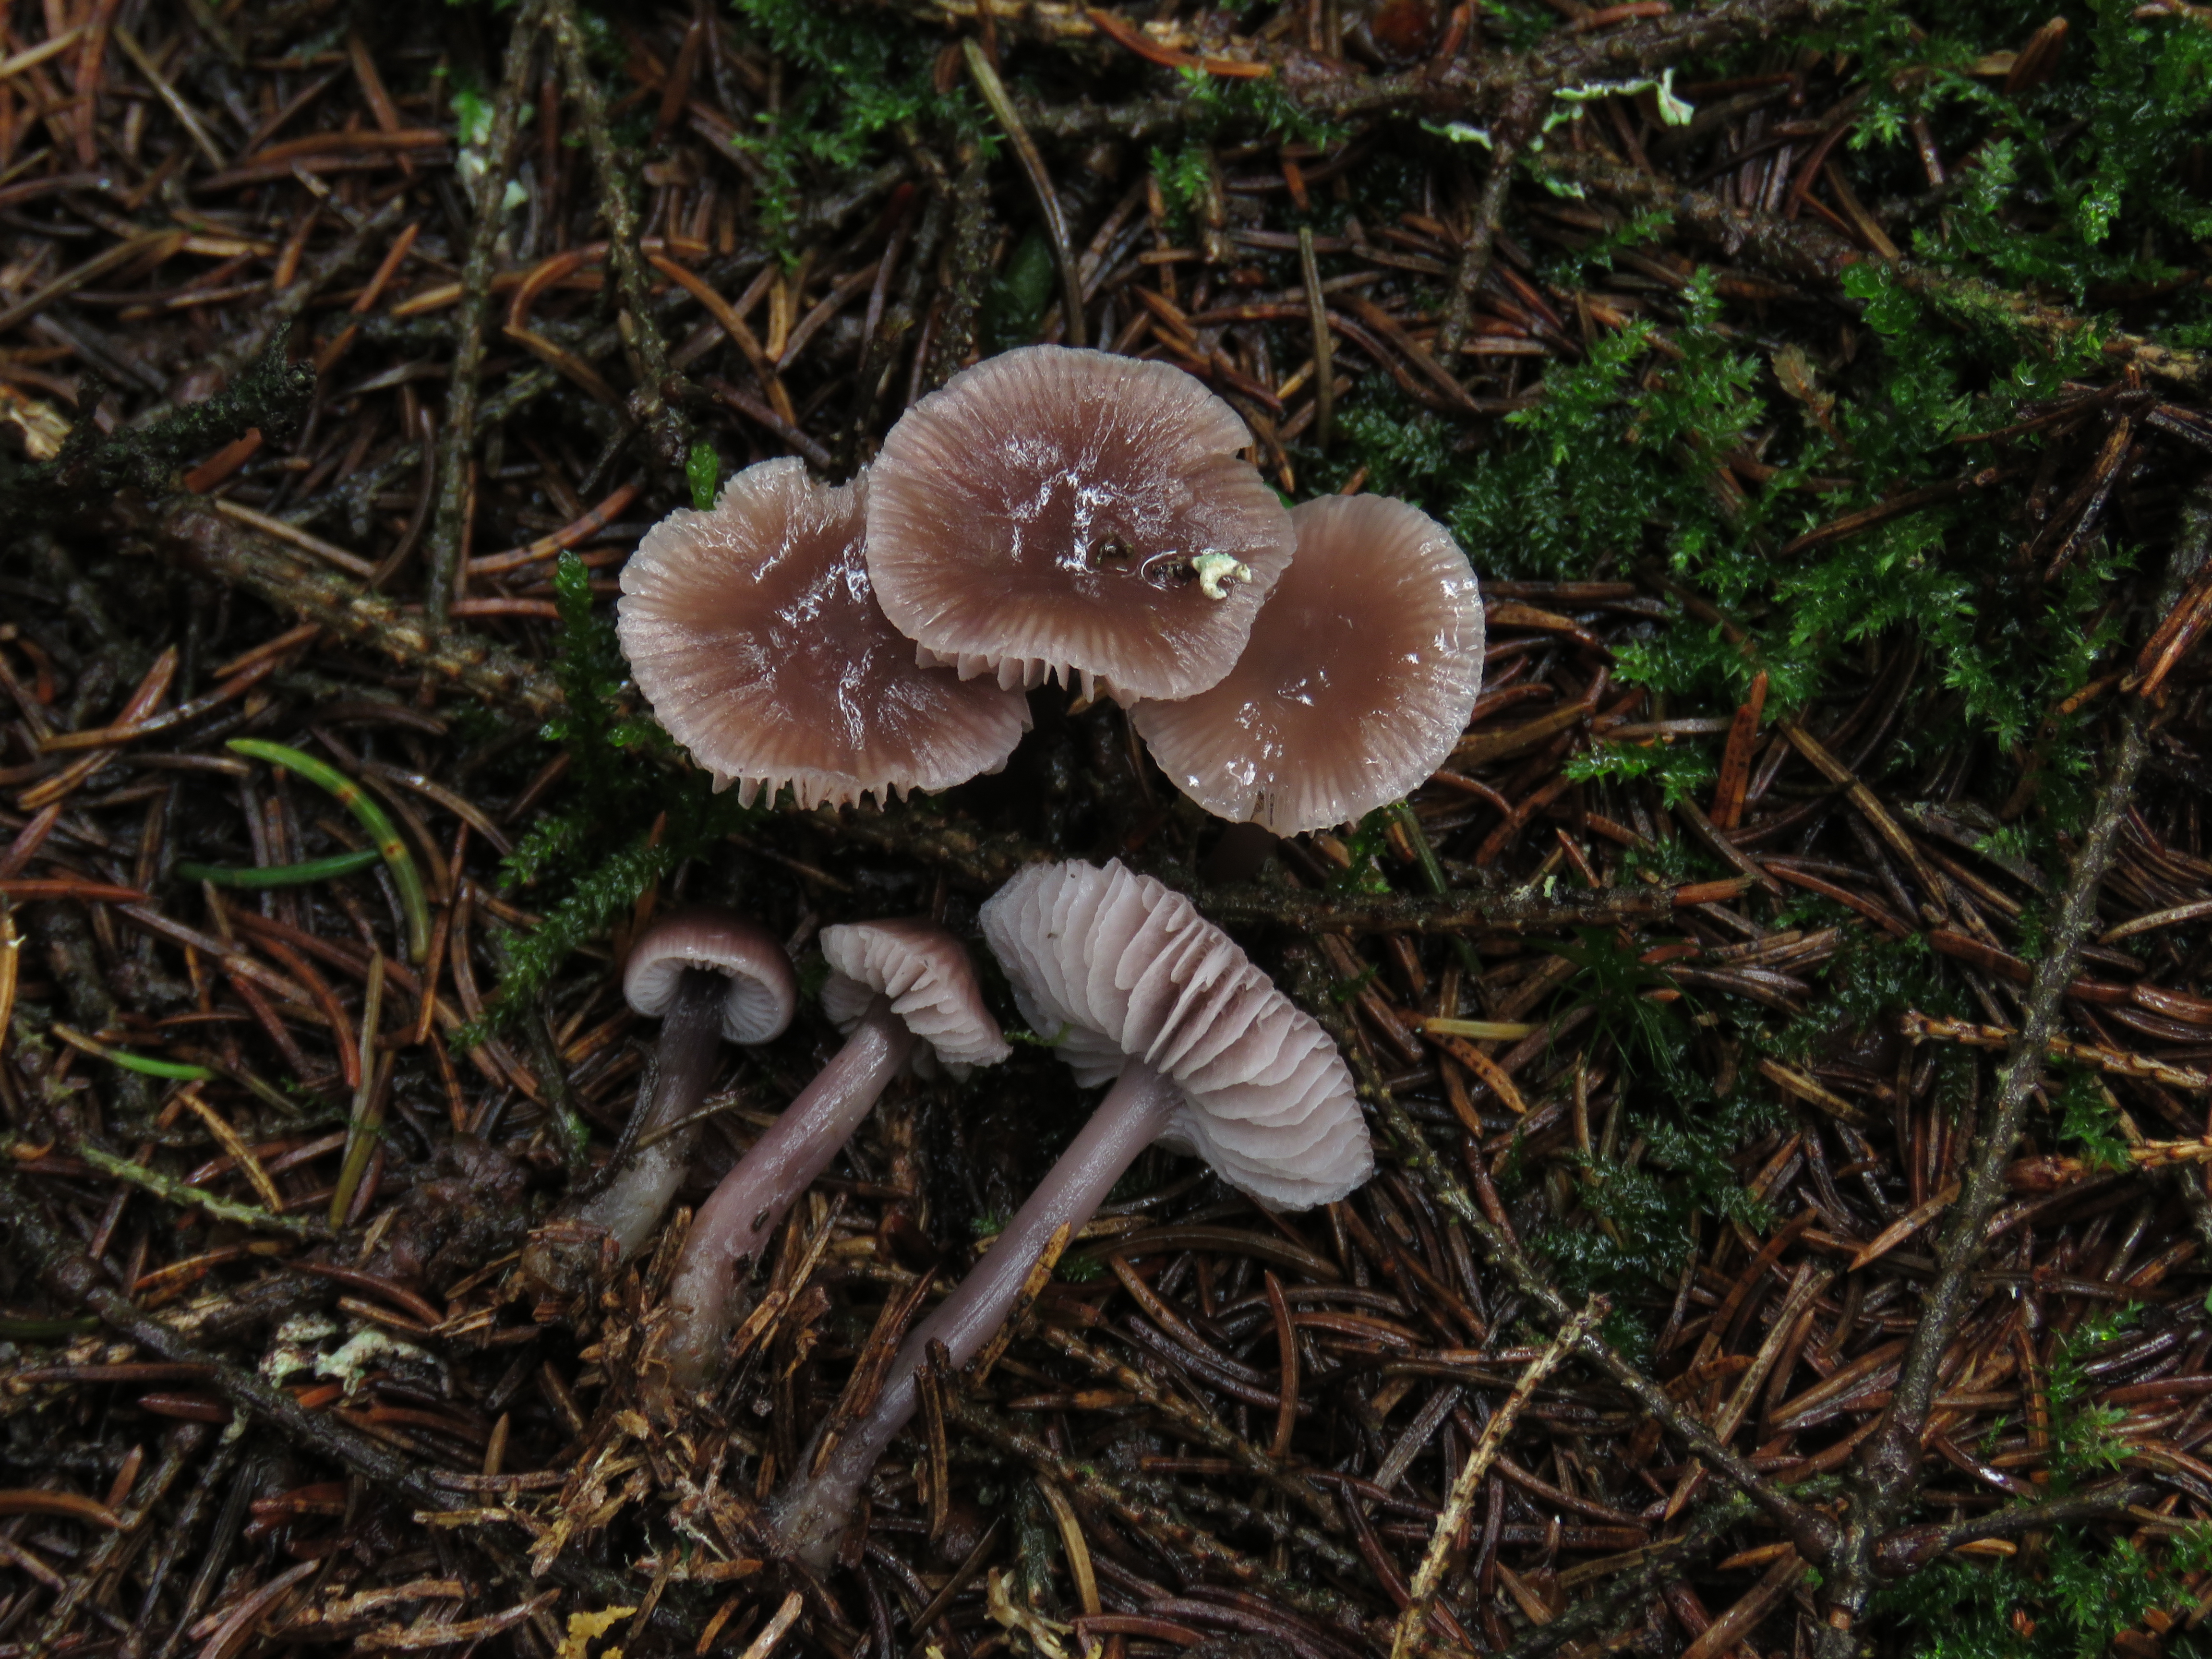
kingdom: Fungi
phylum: Basidiomycota
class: Agaricomycetes
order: Agaricales
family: Mycenaceae
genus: Mycena
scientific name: Mycena pura
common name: Lilac bonnet
